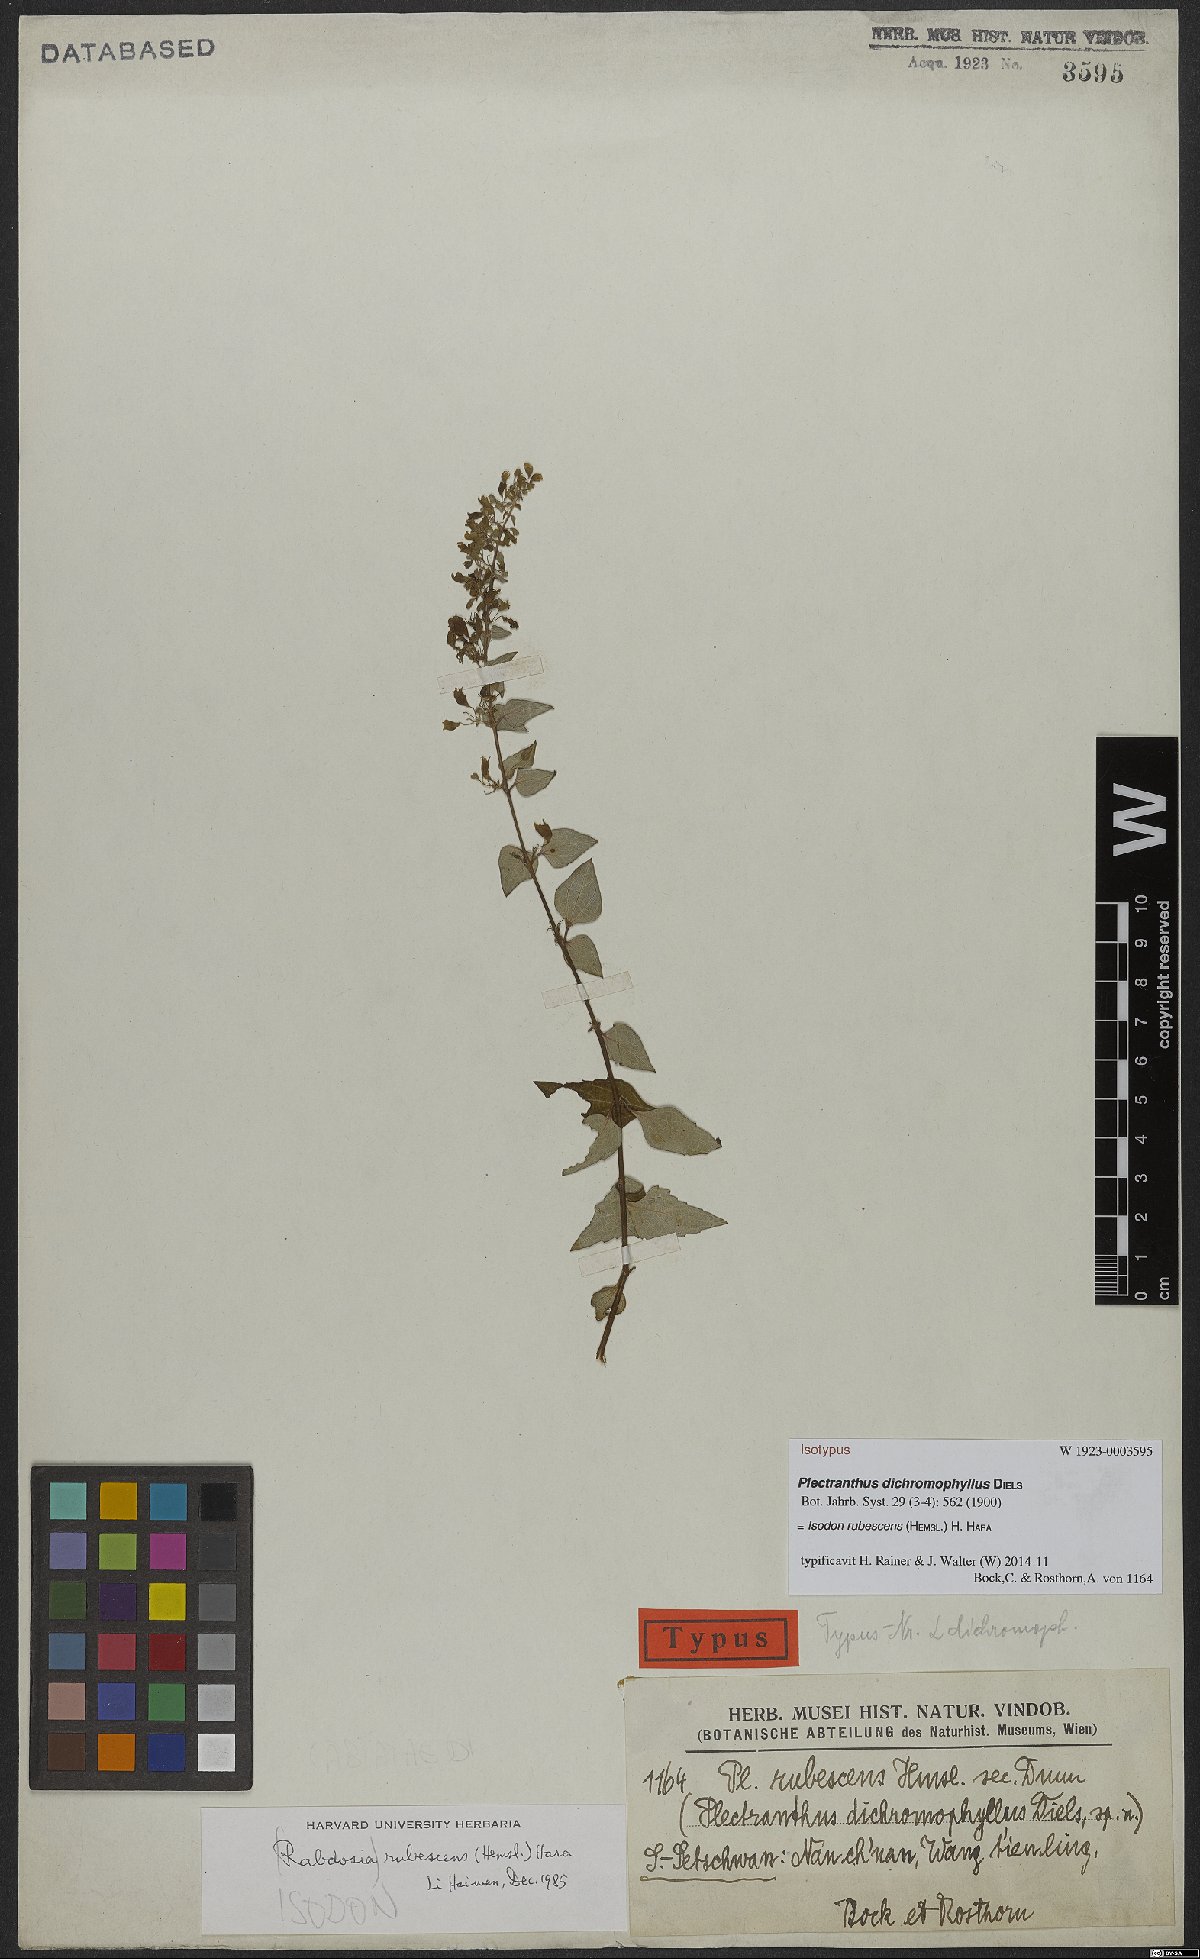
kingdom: Plantae
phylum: Tracheophyta
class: Magnoliopsida
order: Lamiales
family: Lamiaceae
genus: Isodon
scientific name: Isodon rubescens
